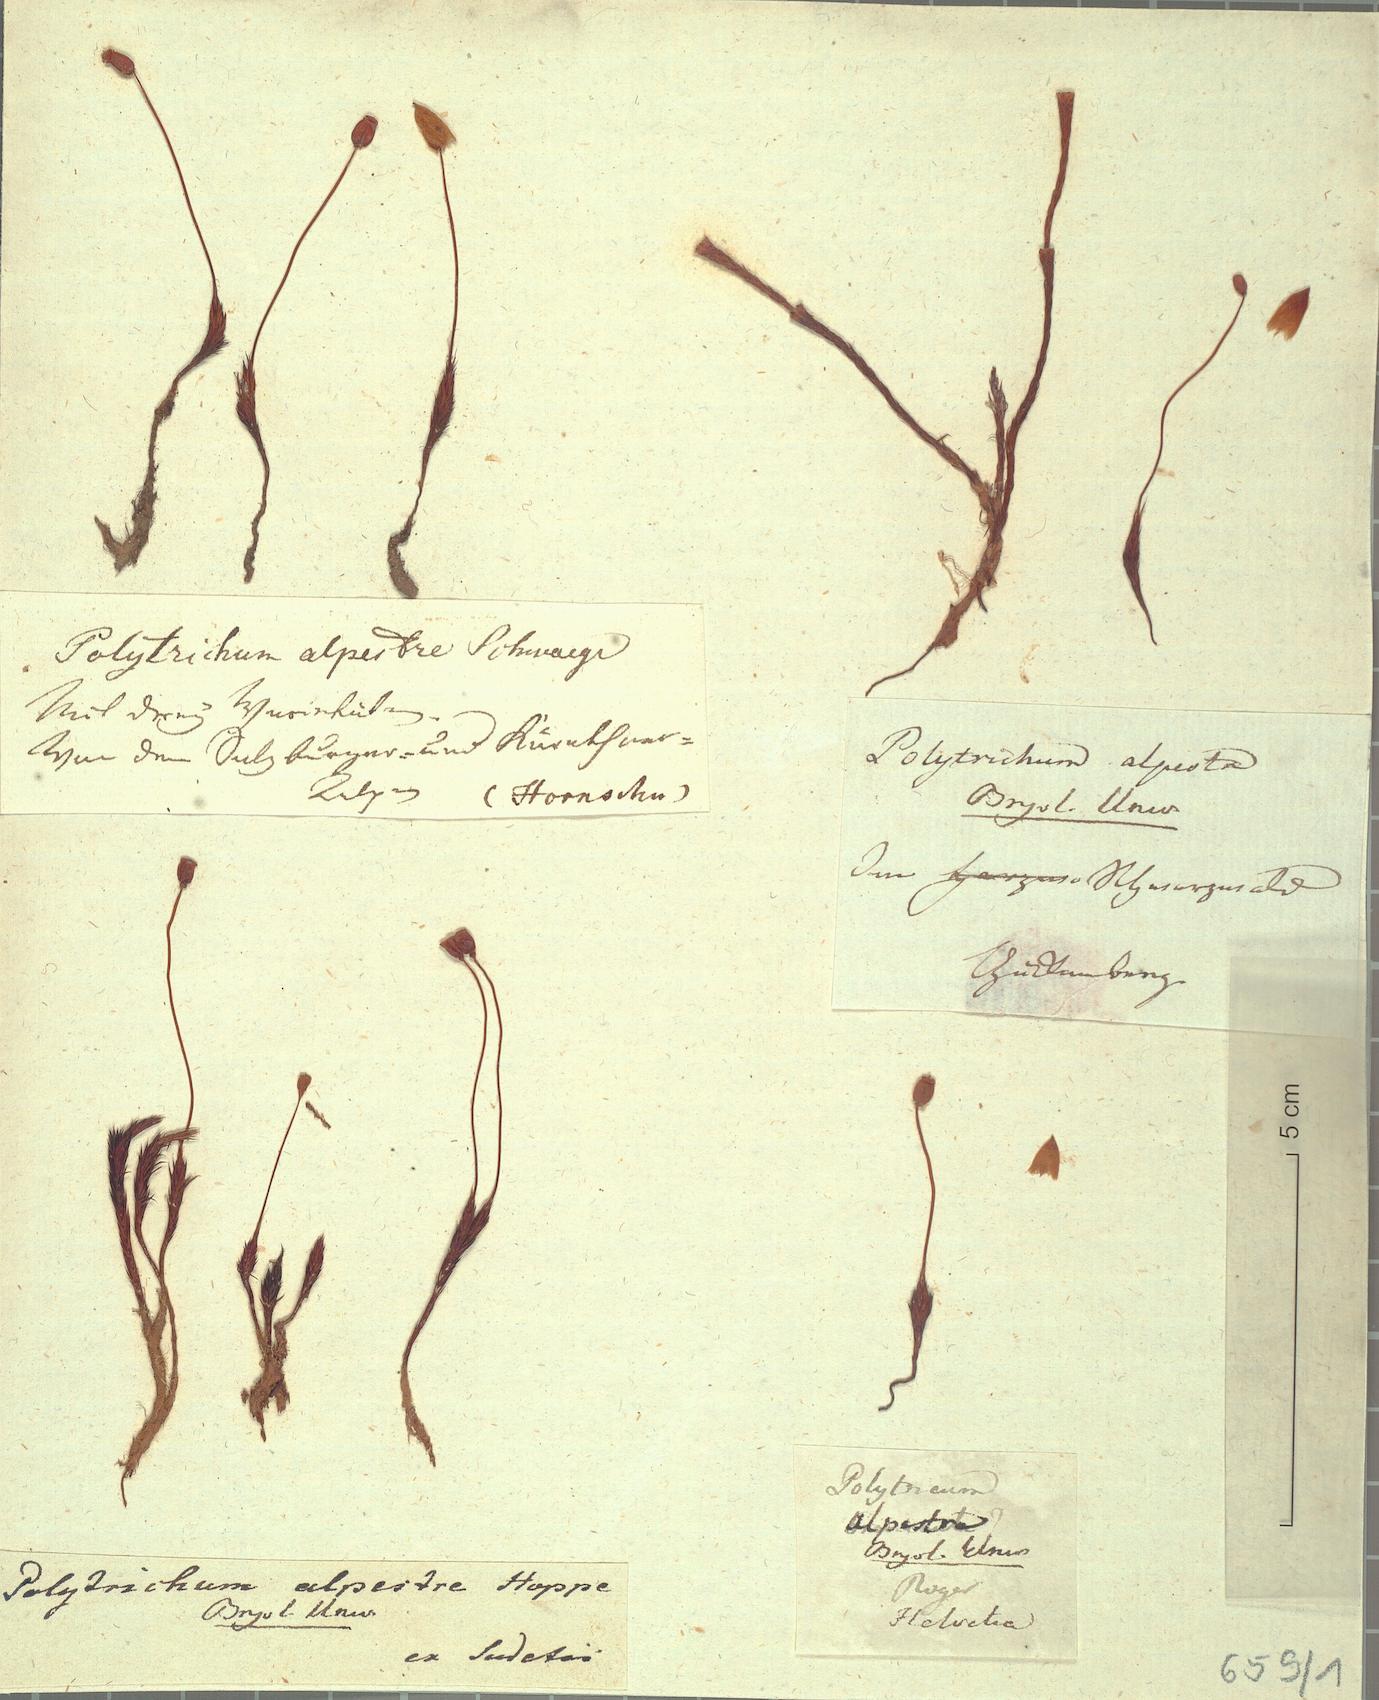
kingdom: Plantae
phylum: Bryophyta
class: Polytrichopsida
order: Polytrichales
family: Polytrichaceae
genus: Polytrichum
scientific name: Polytrichum strictum
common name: Bog haircap moss
